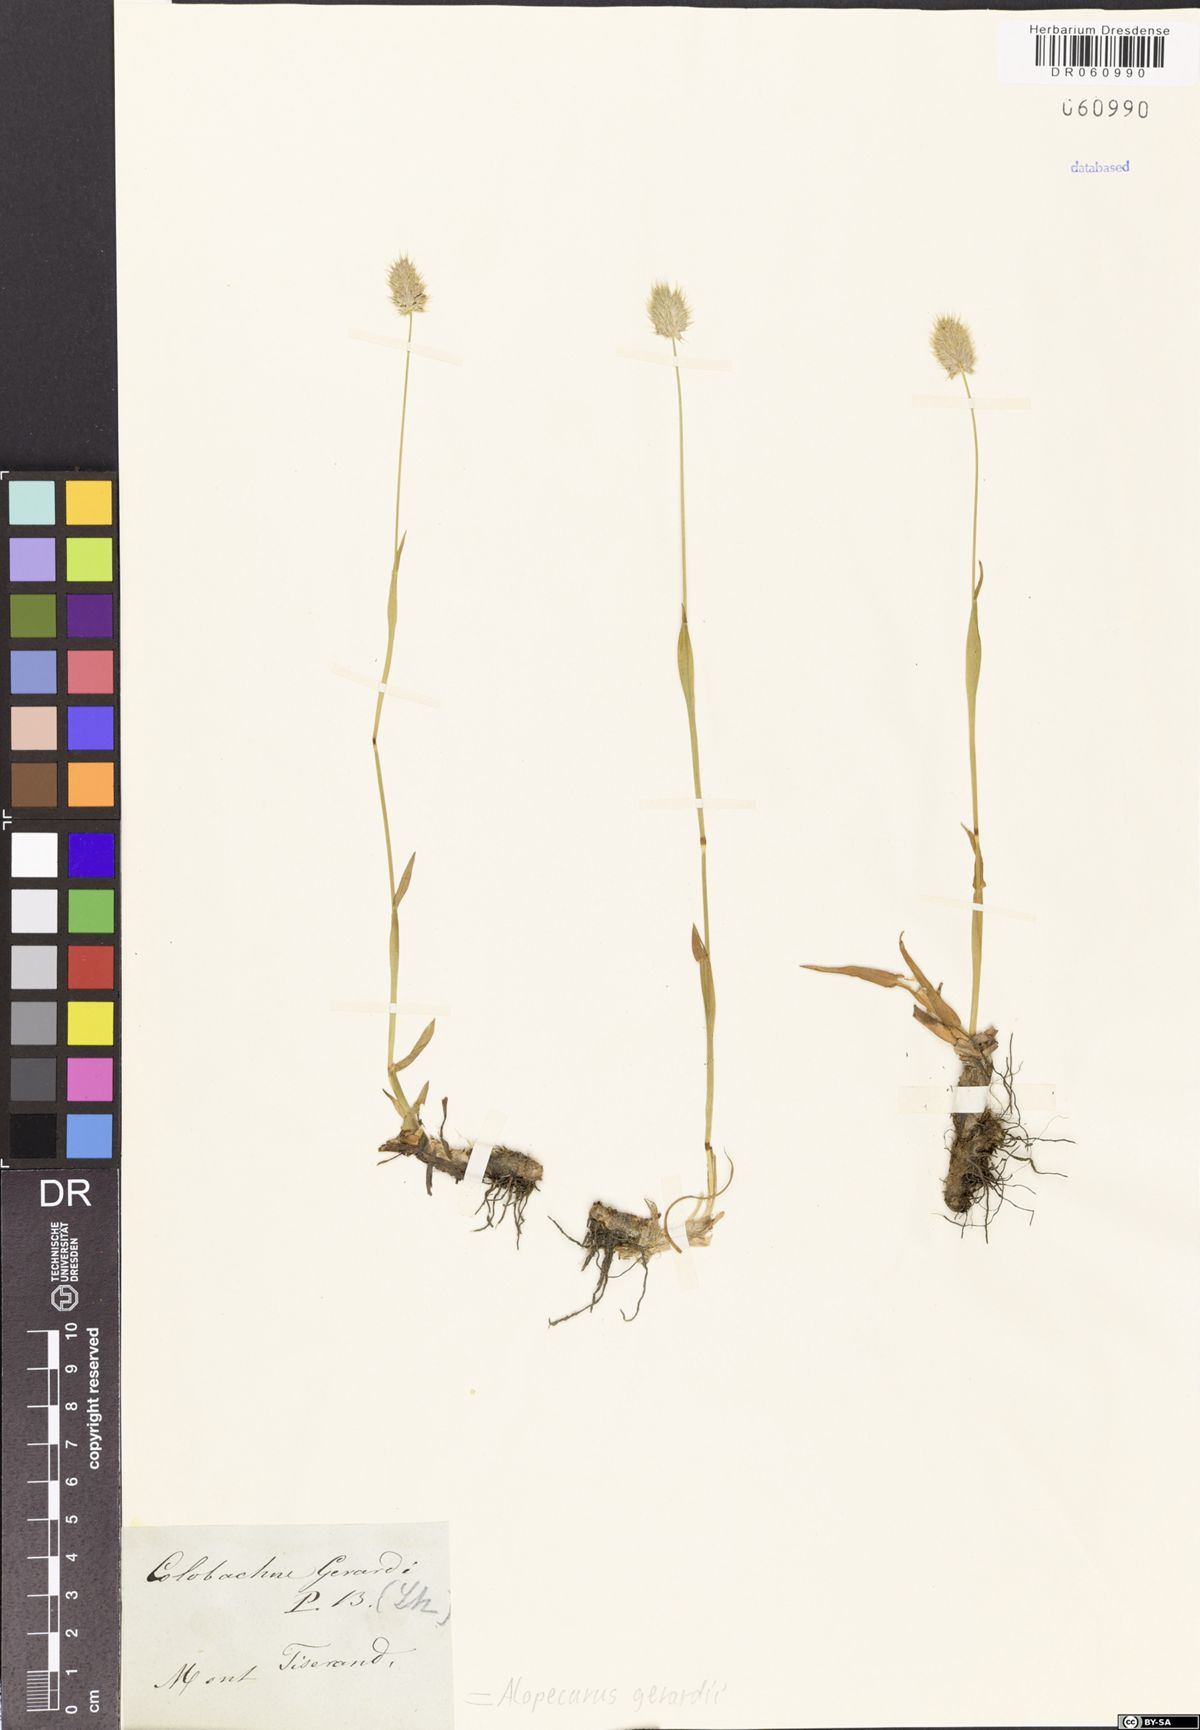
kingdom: Plantae
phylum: Tracheophyta
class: Liliopsida
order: Poales
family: Poaceae
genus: Alopecurus
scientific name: Alopecurus gerardii
